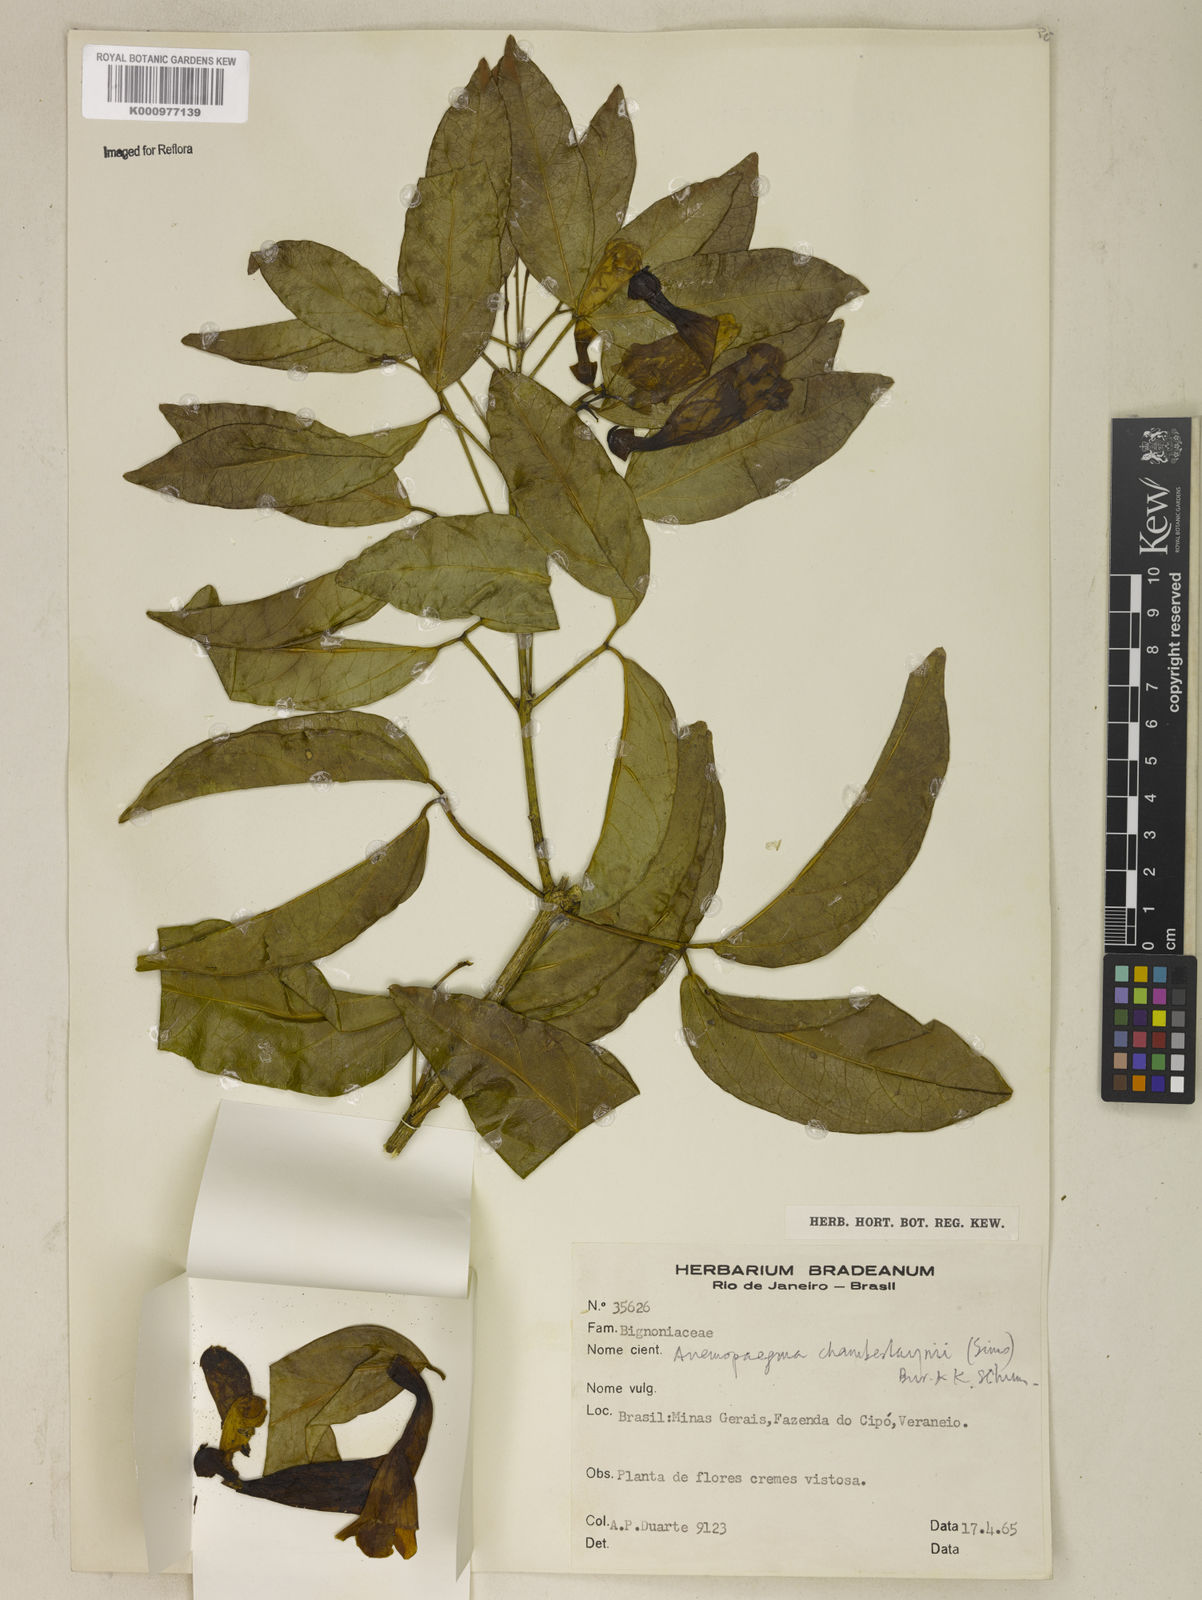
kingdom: Plantae
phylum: Tracheophyta
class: Magnoliopsida
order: Lamiales
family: Bignoniaceae
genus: Anemopaegma
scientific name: Anemopaegma chamberlaynii
